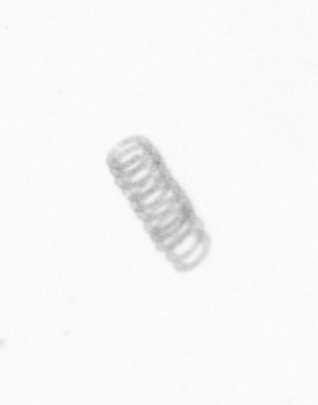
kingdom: Chromista
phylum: Ochrophyta
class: Bacillariophyceae
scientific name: Bacillariophyceae
